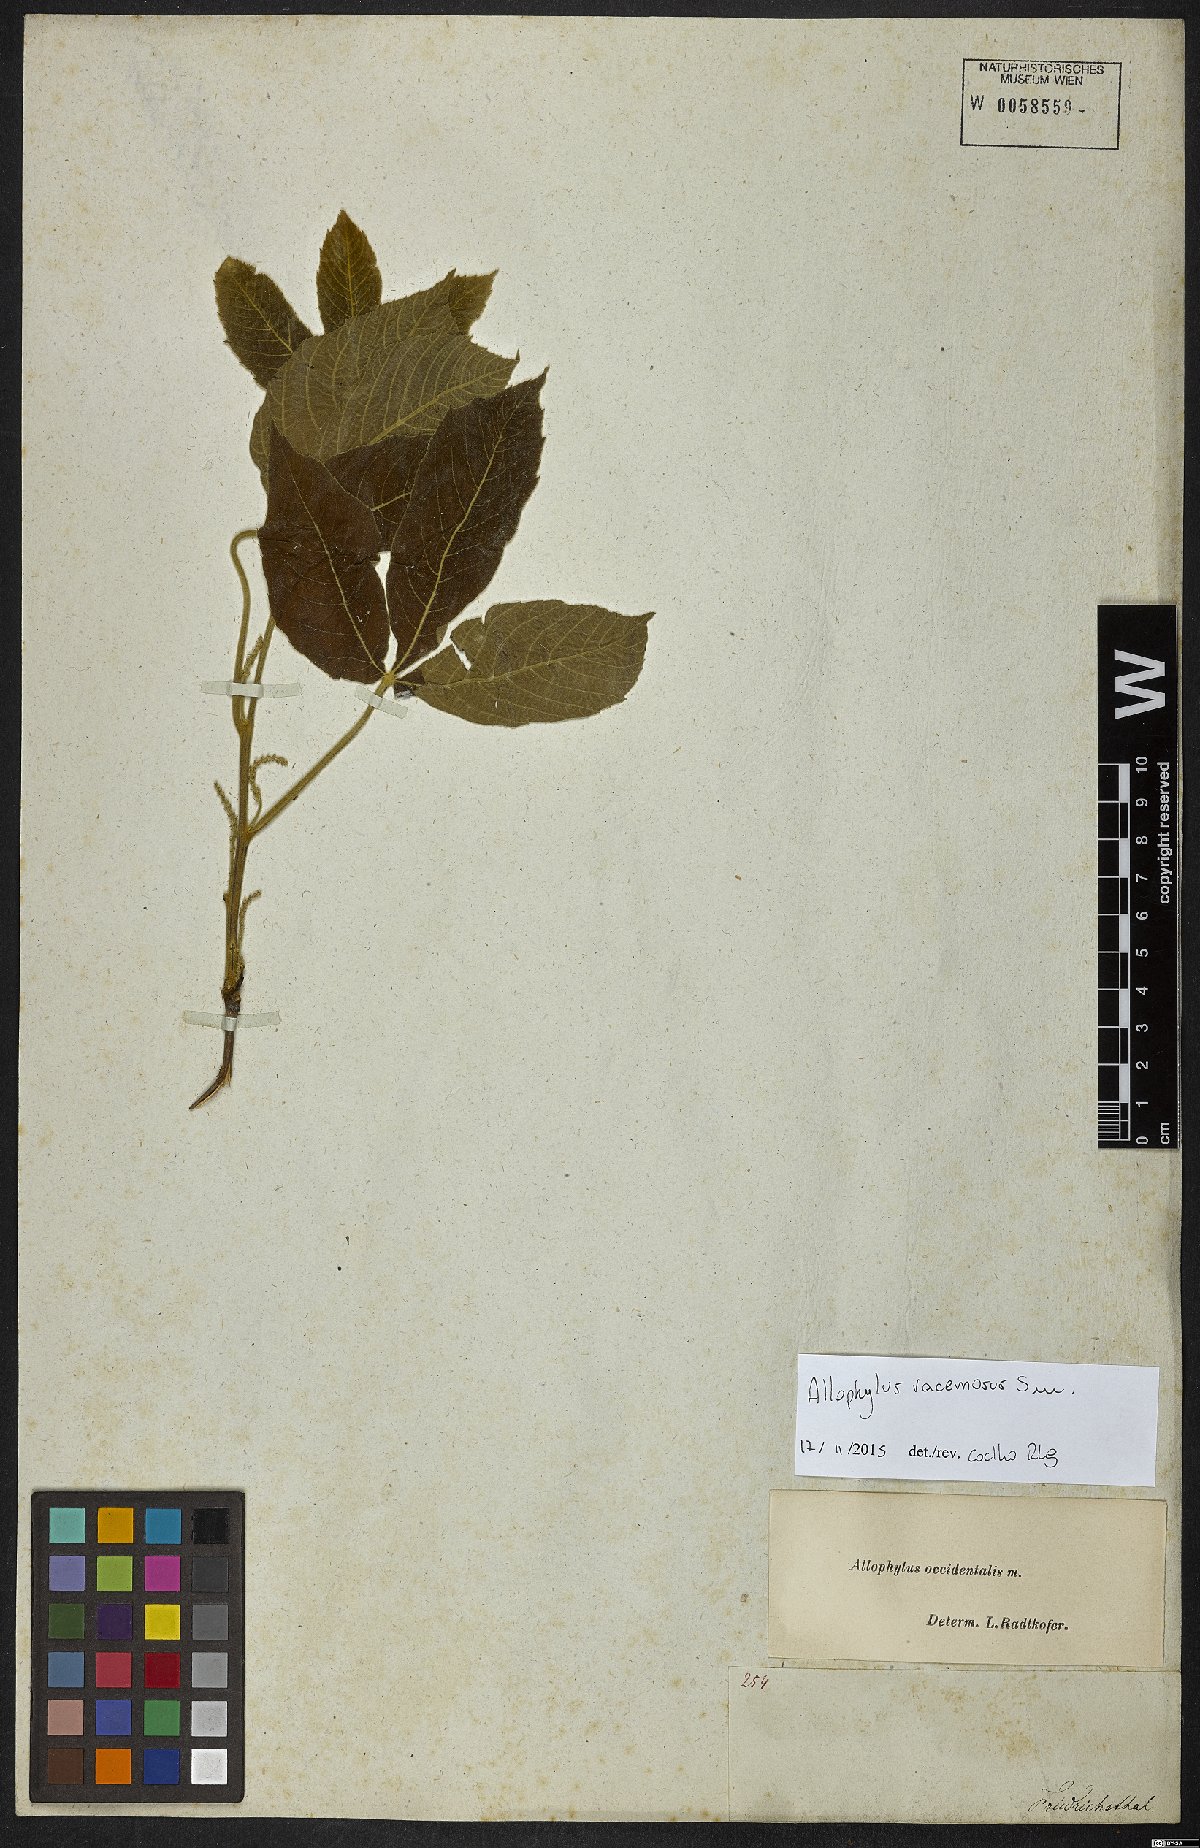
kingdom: Plantae
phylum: Tracheophyta
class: Magnoliopsida
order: Sapindales
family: Sapindaceae
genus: Allophylus
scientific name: Allophylus racemosus
